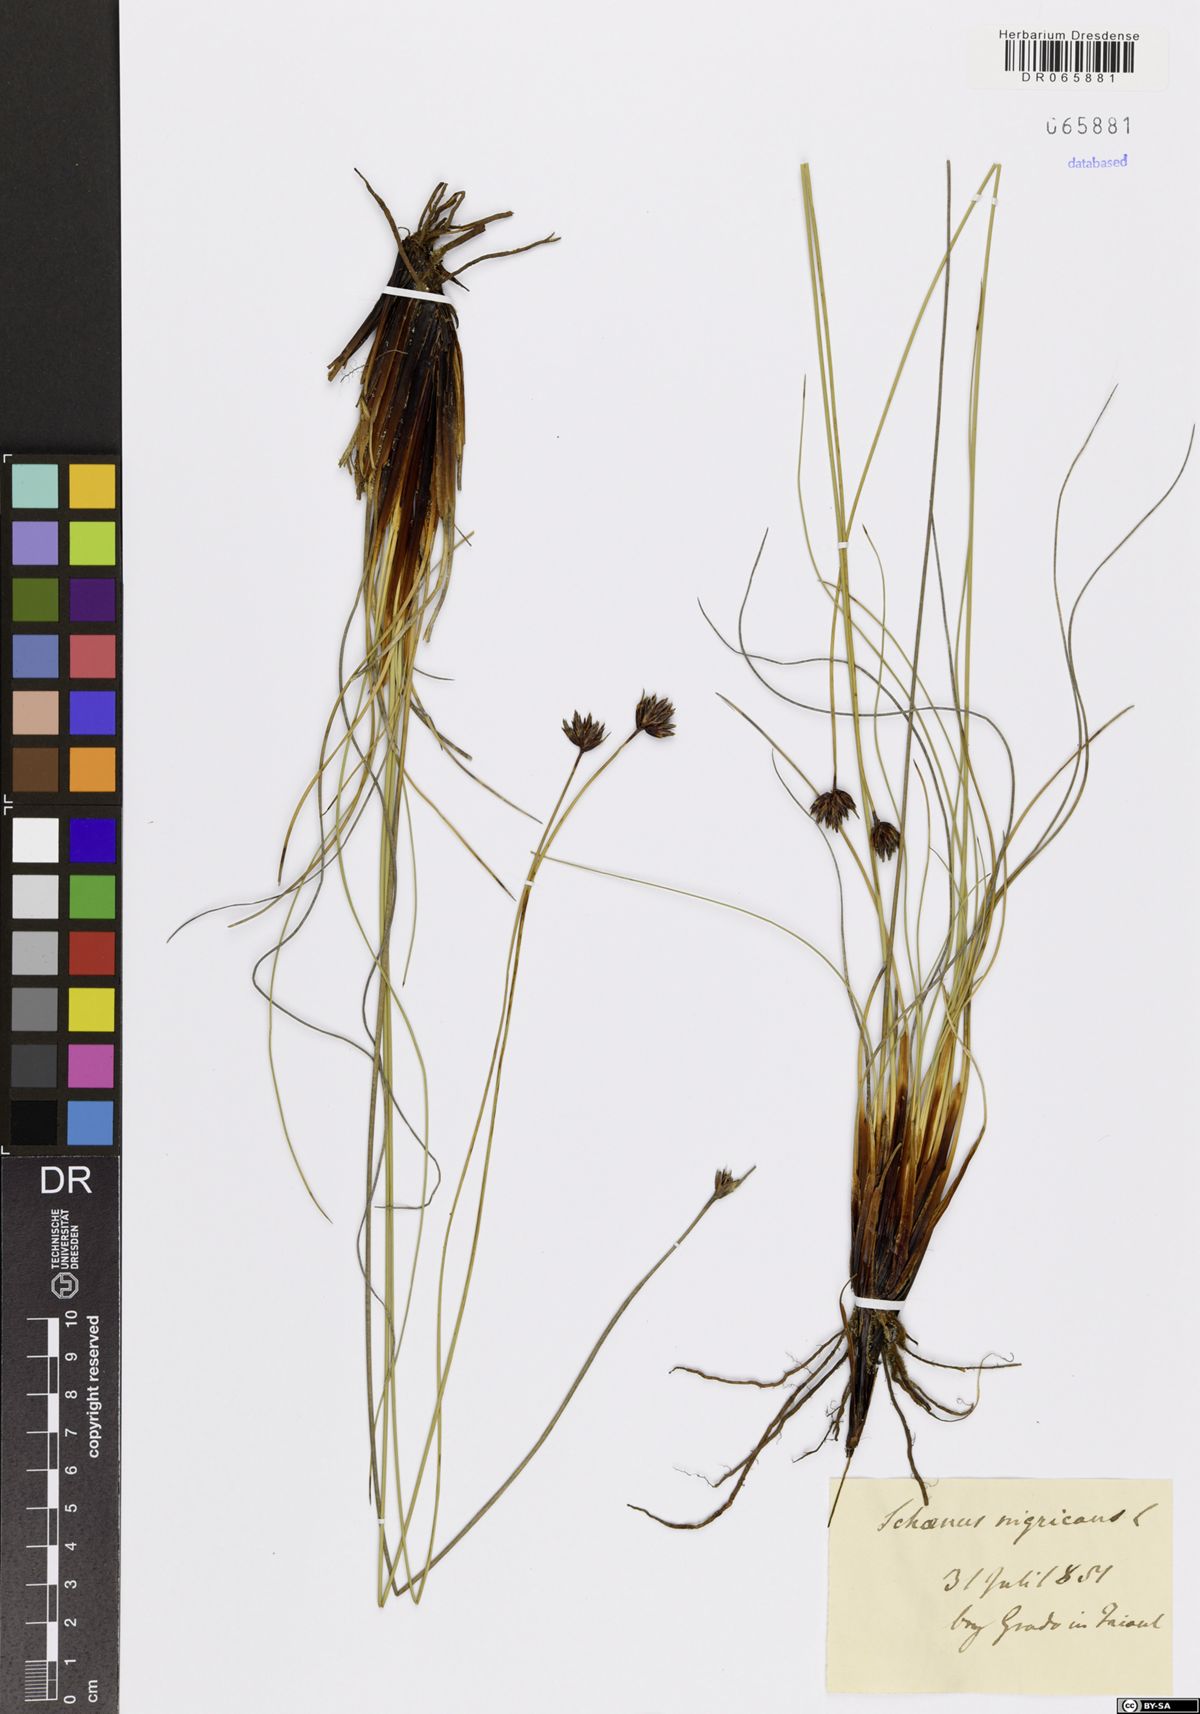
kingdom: Plantae
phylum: Tracheophyta
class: Liliopsida
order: Poales
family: Cyperaceae
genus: Schoenus
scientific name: Schoenus nigricans
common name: Black bog-rush
